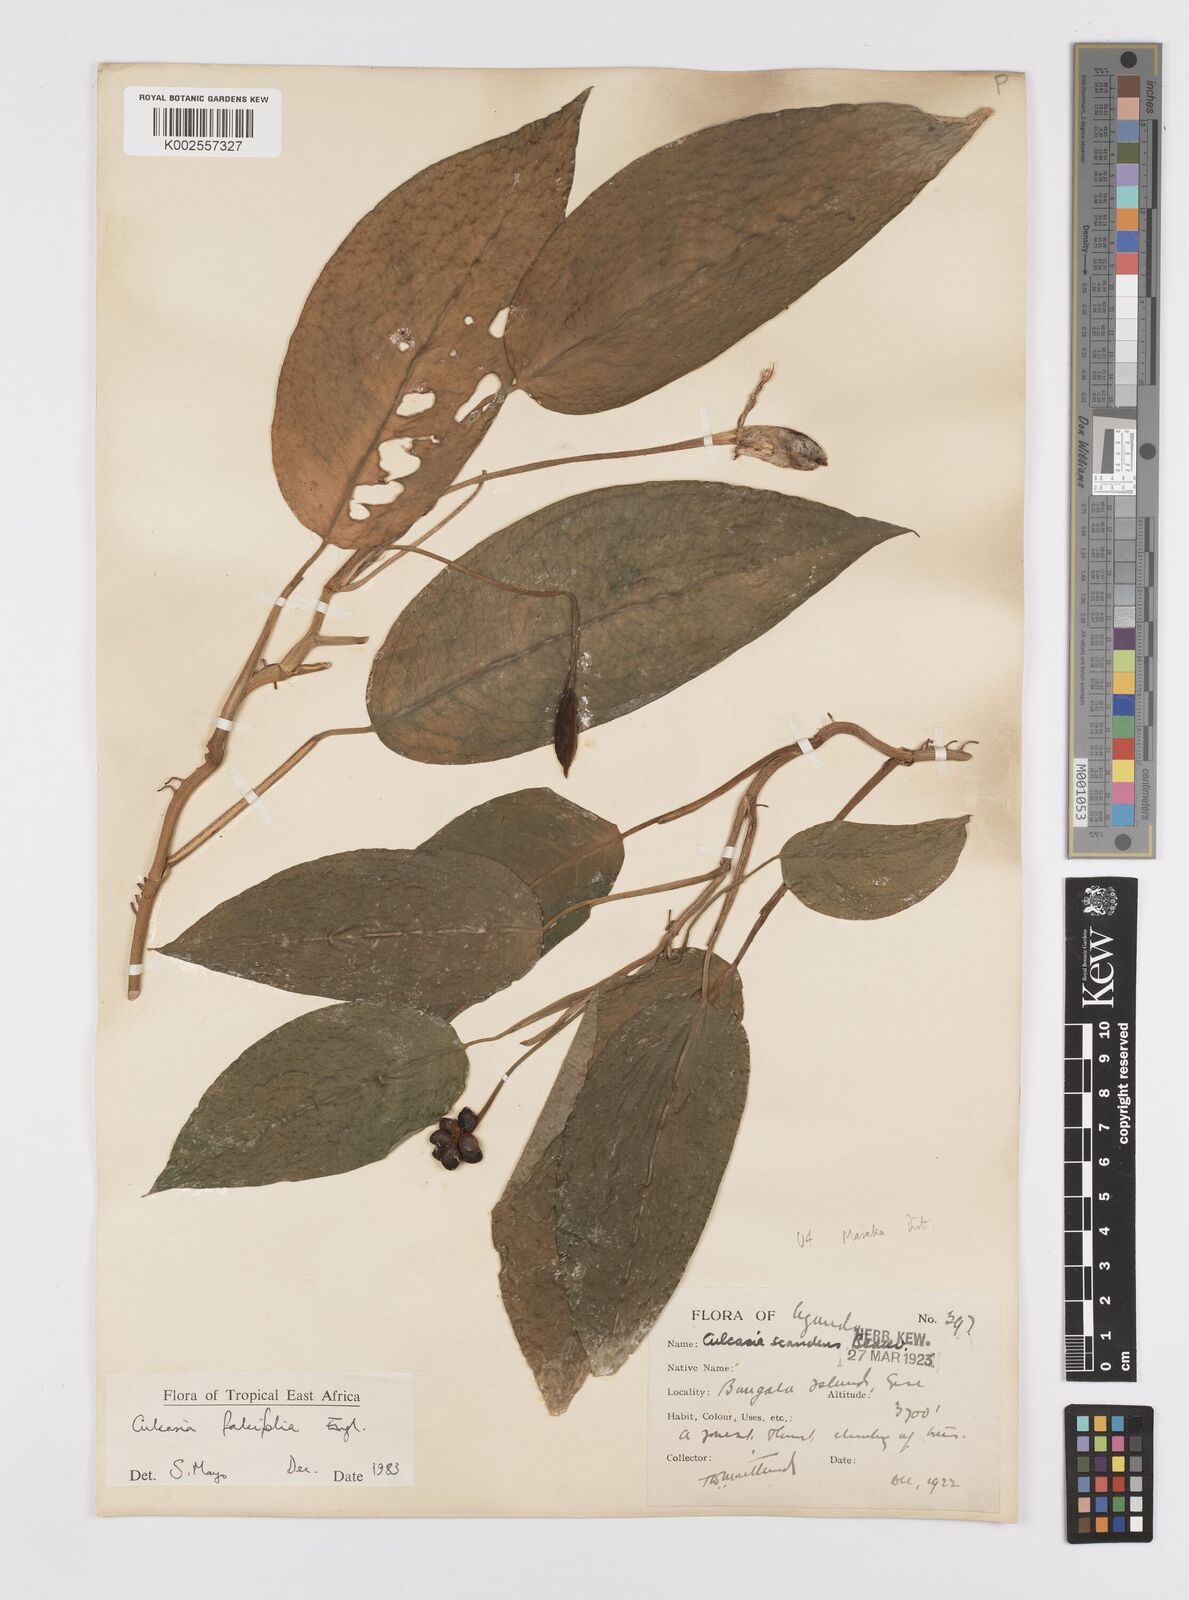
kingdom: Plantae
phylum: Tracheophyta
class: Liliopsida
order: Alismatales
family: Araceae
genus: Culcasia
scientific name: Culcasia falcifolia
